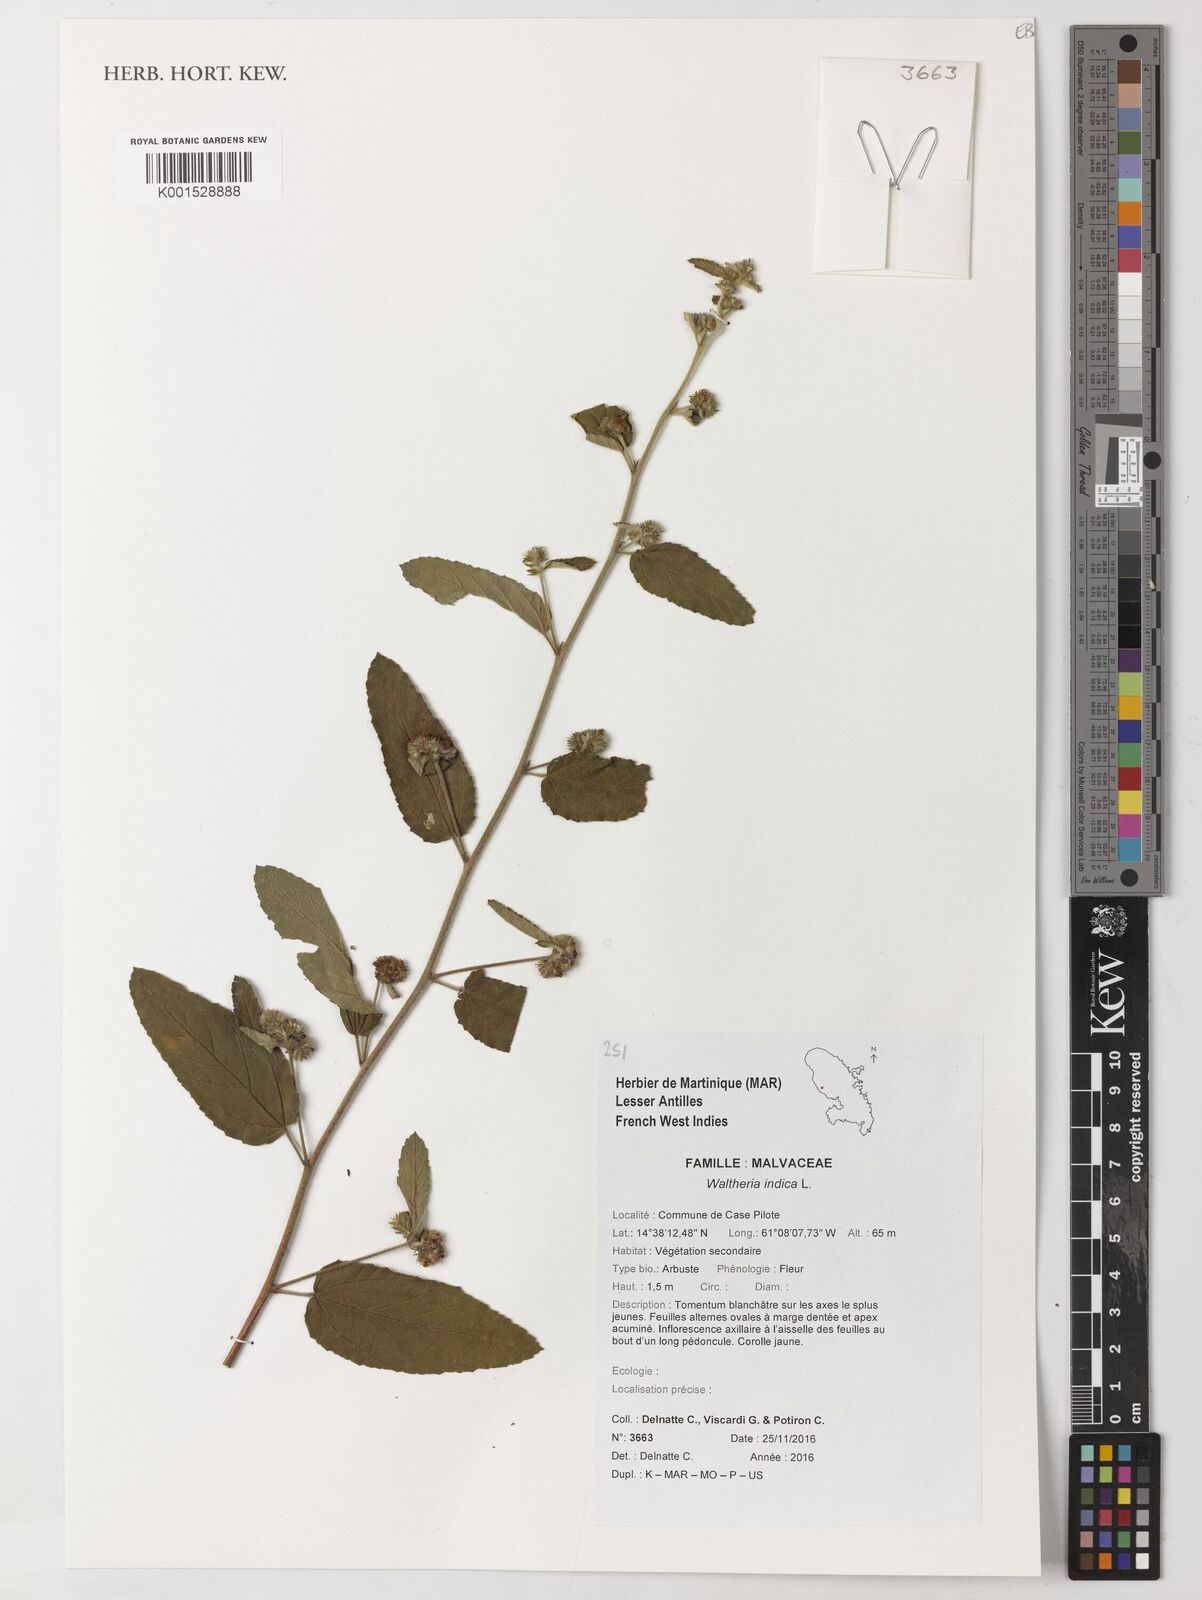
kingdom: Plantae
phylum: Tracheophyta
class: Magnoliopsida
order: Malvales
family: Malvaceae
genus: Waltheria
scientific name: Waltheria indica
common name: Leather-coat
